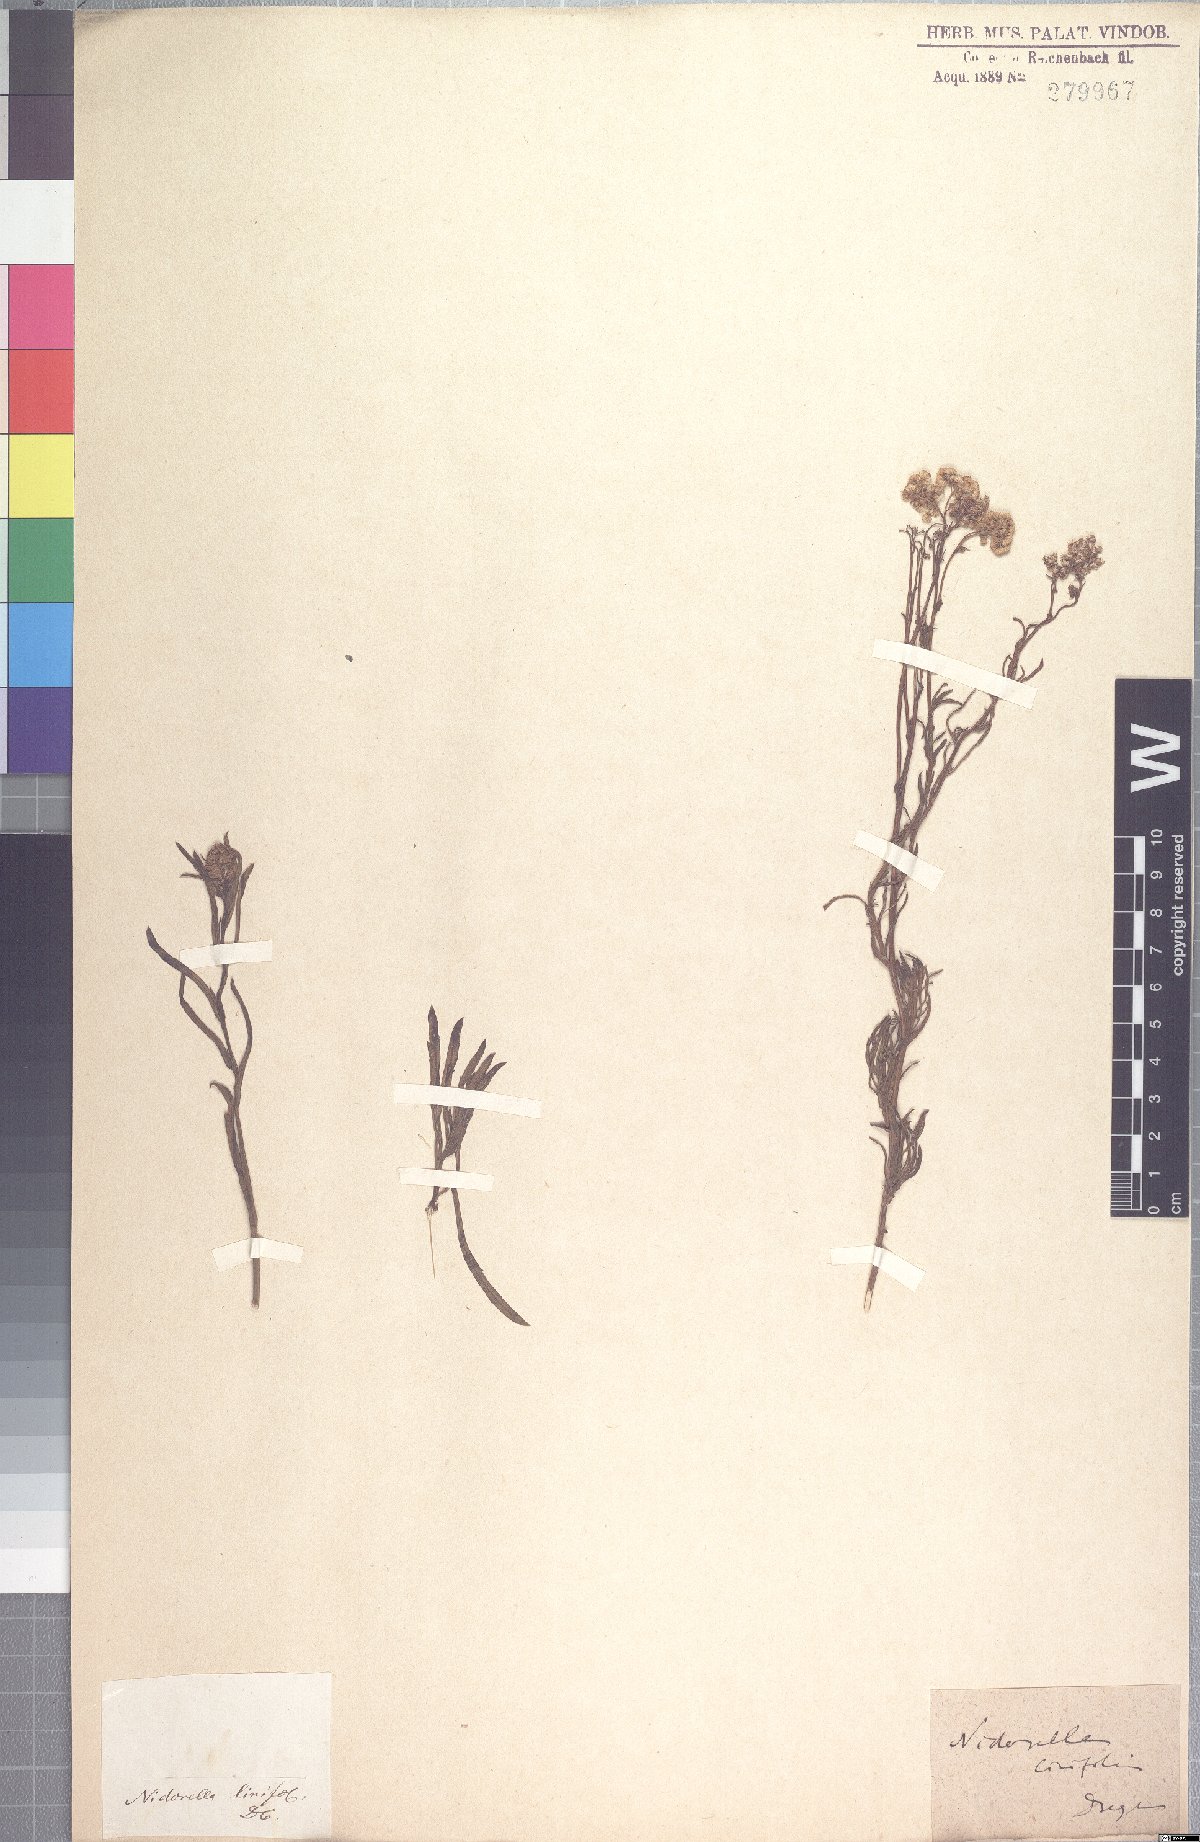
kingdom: Plantae
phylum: Tracheophyta
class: Magnoliopsida
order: Asterales
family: Asteraceae
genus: Nidorella
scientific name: Nidorella linifolia
